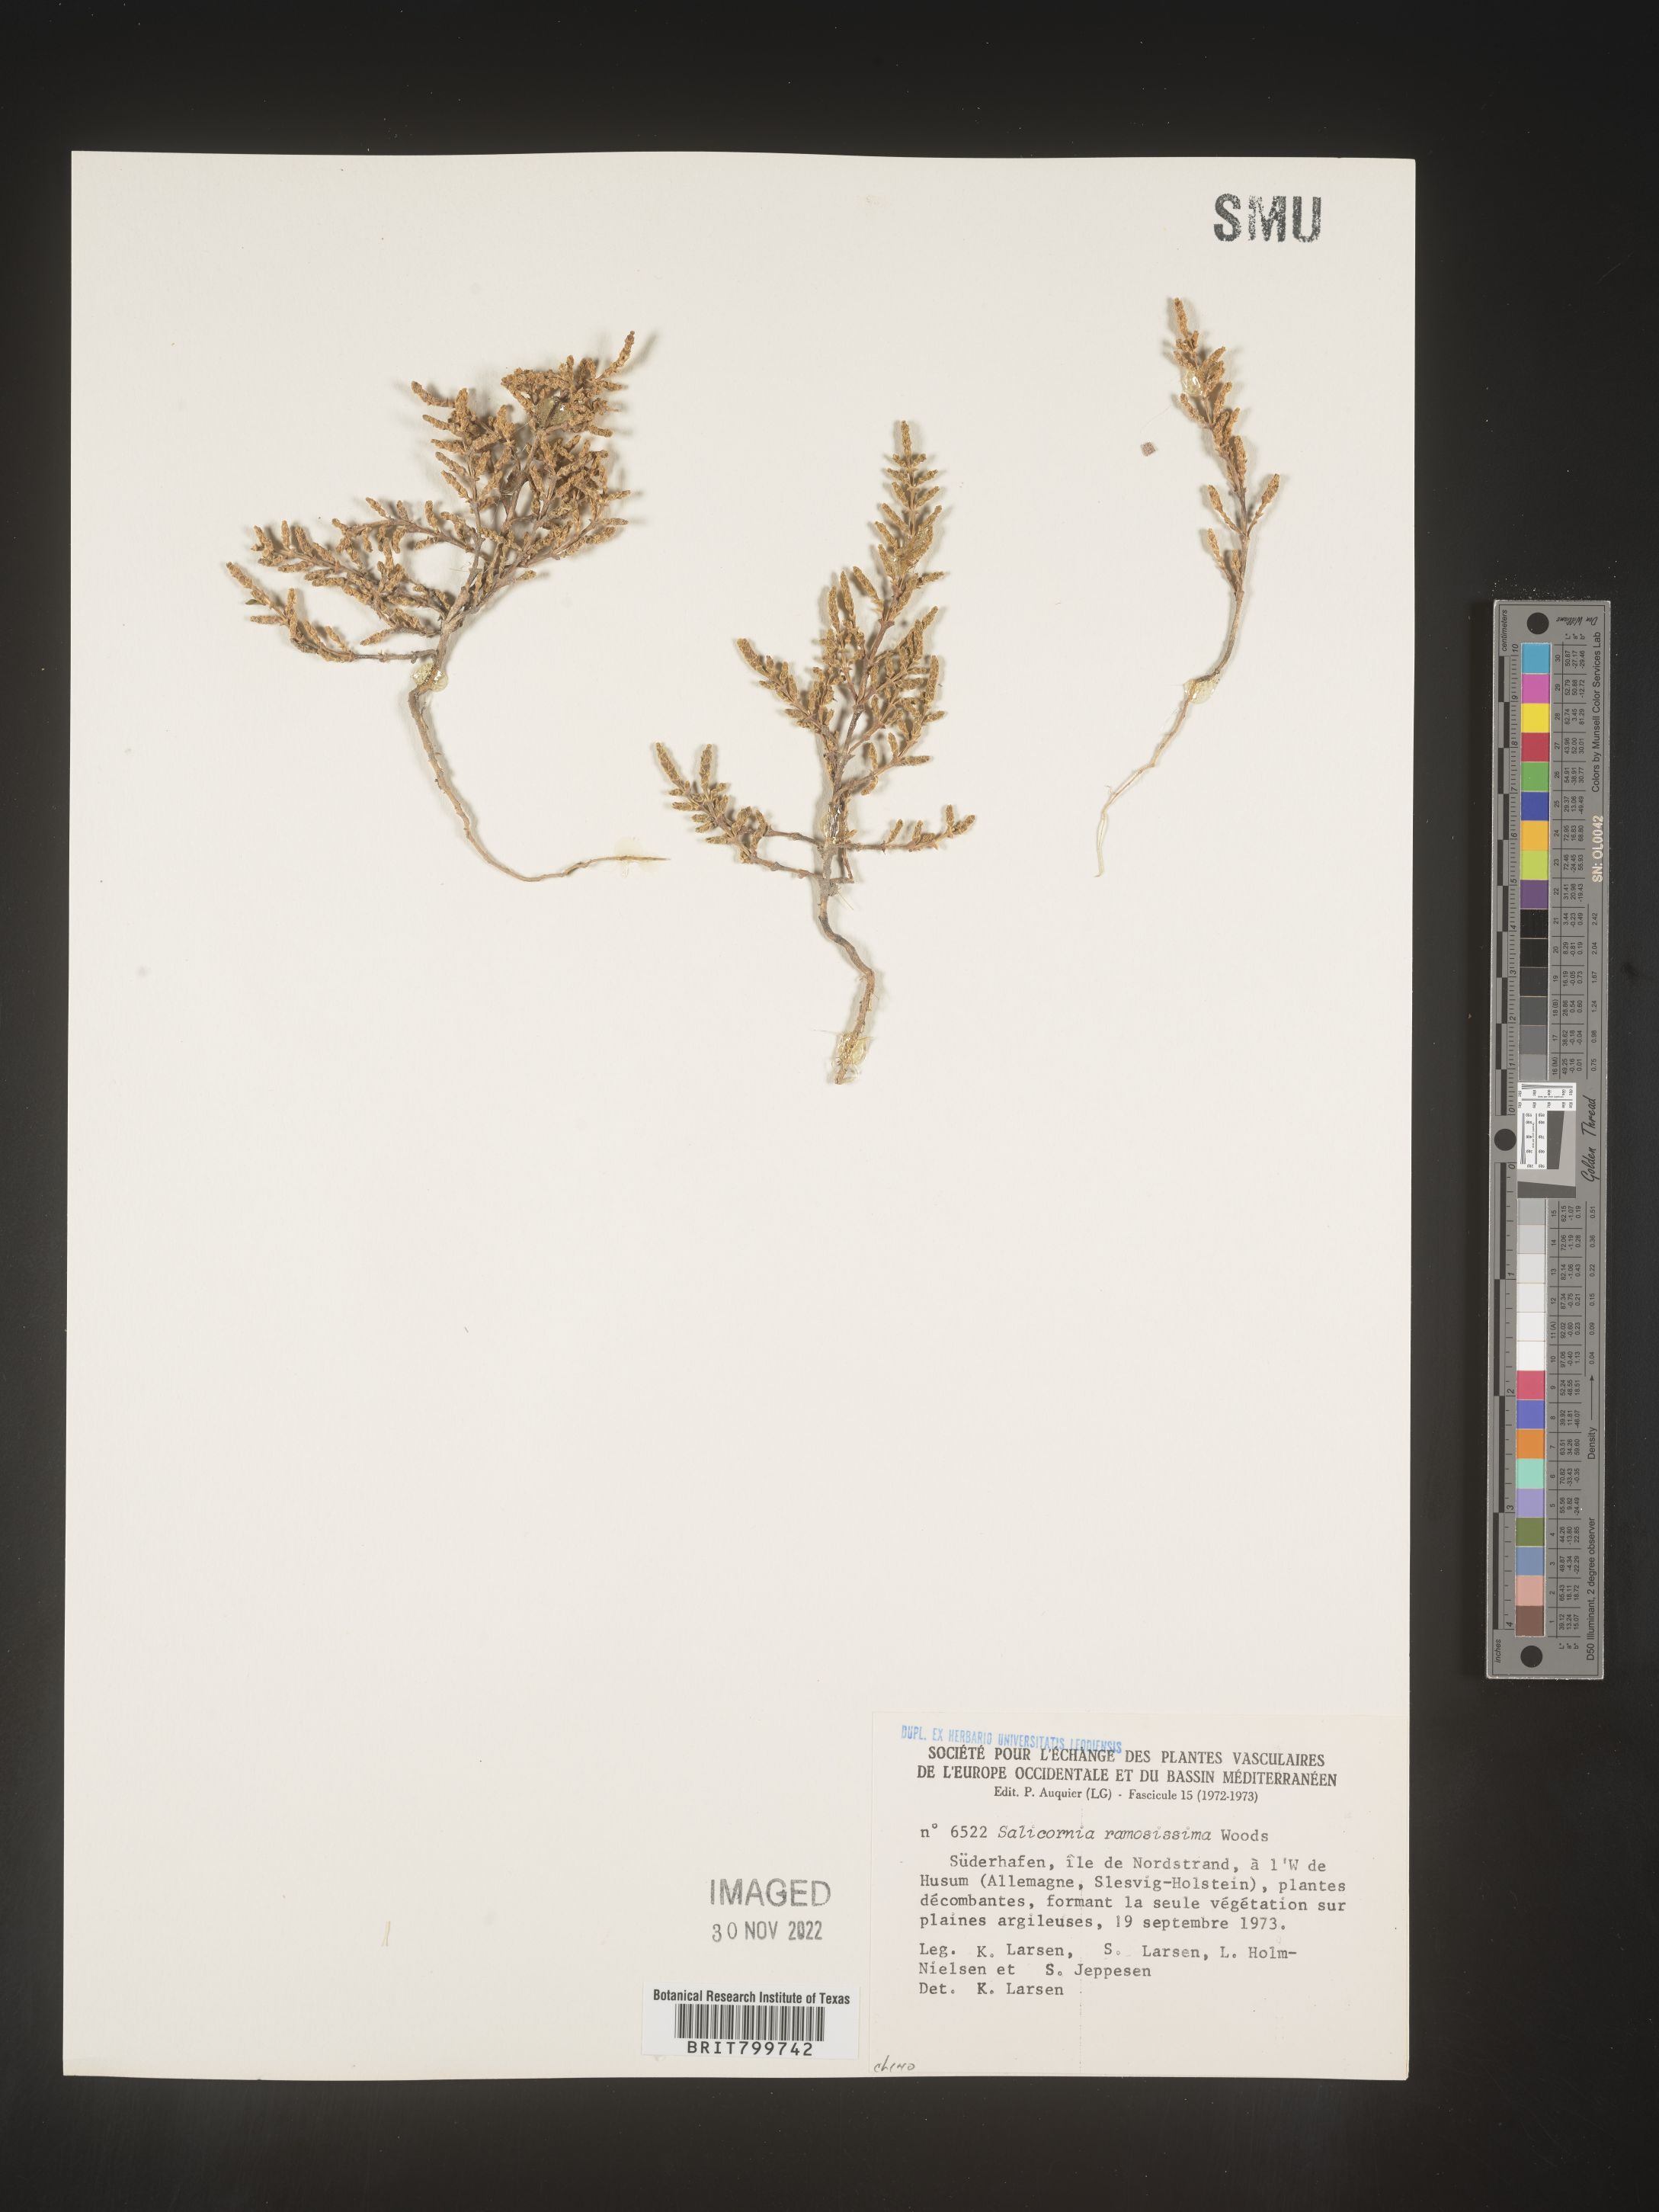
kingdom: Plantae
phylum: Tracheophyta
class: Magnoliopsida
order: Caryophyllales
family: Amaranthaceae
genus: Salicornia
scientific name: Salicornia
